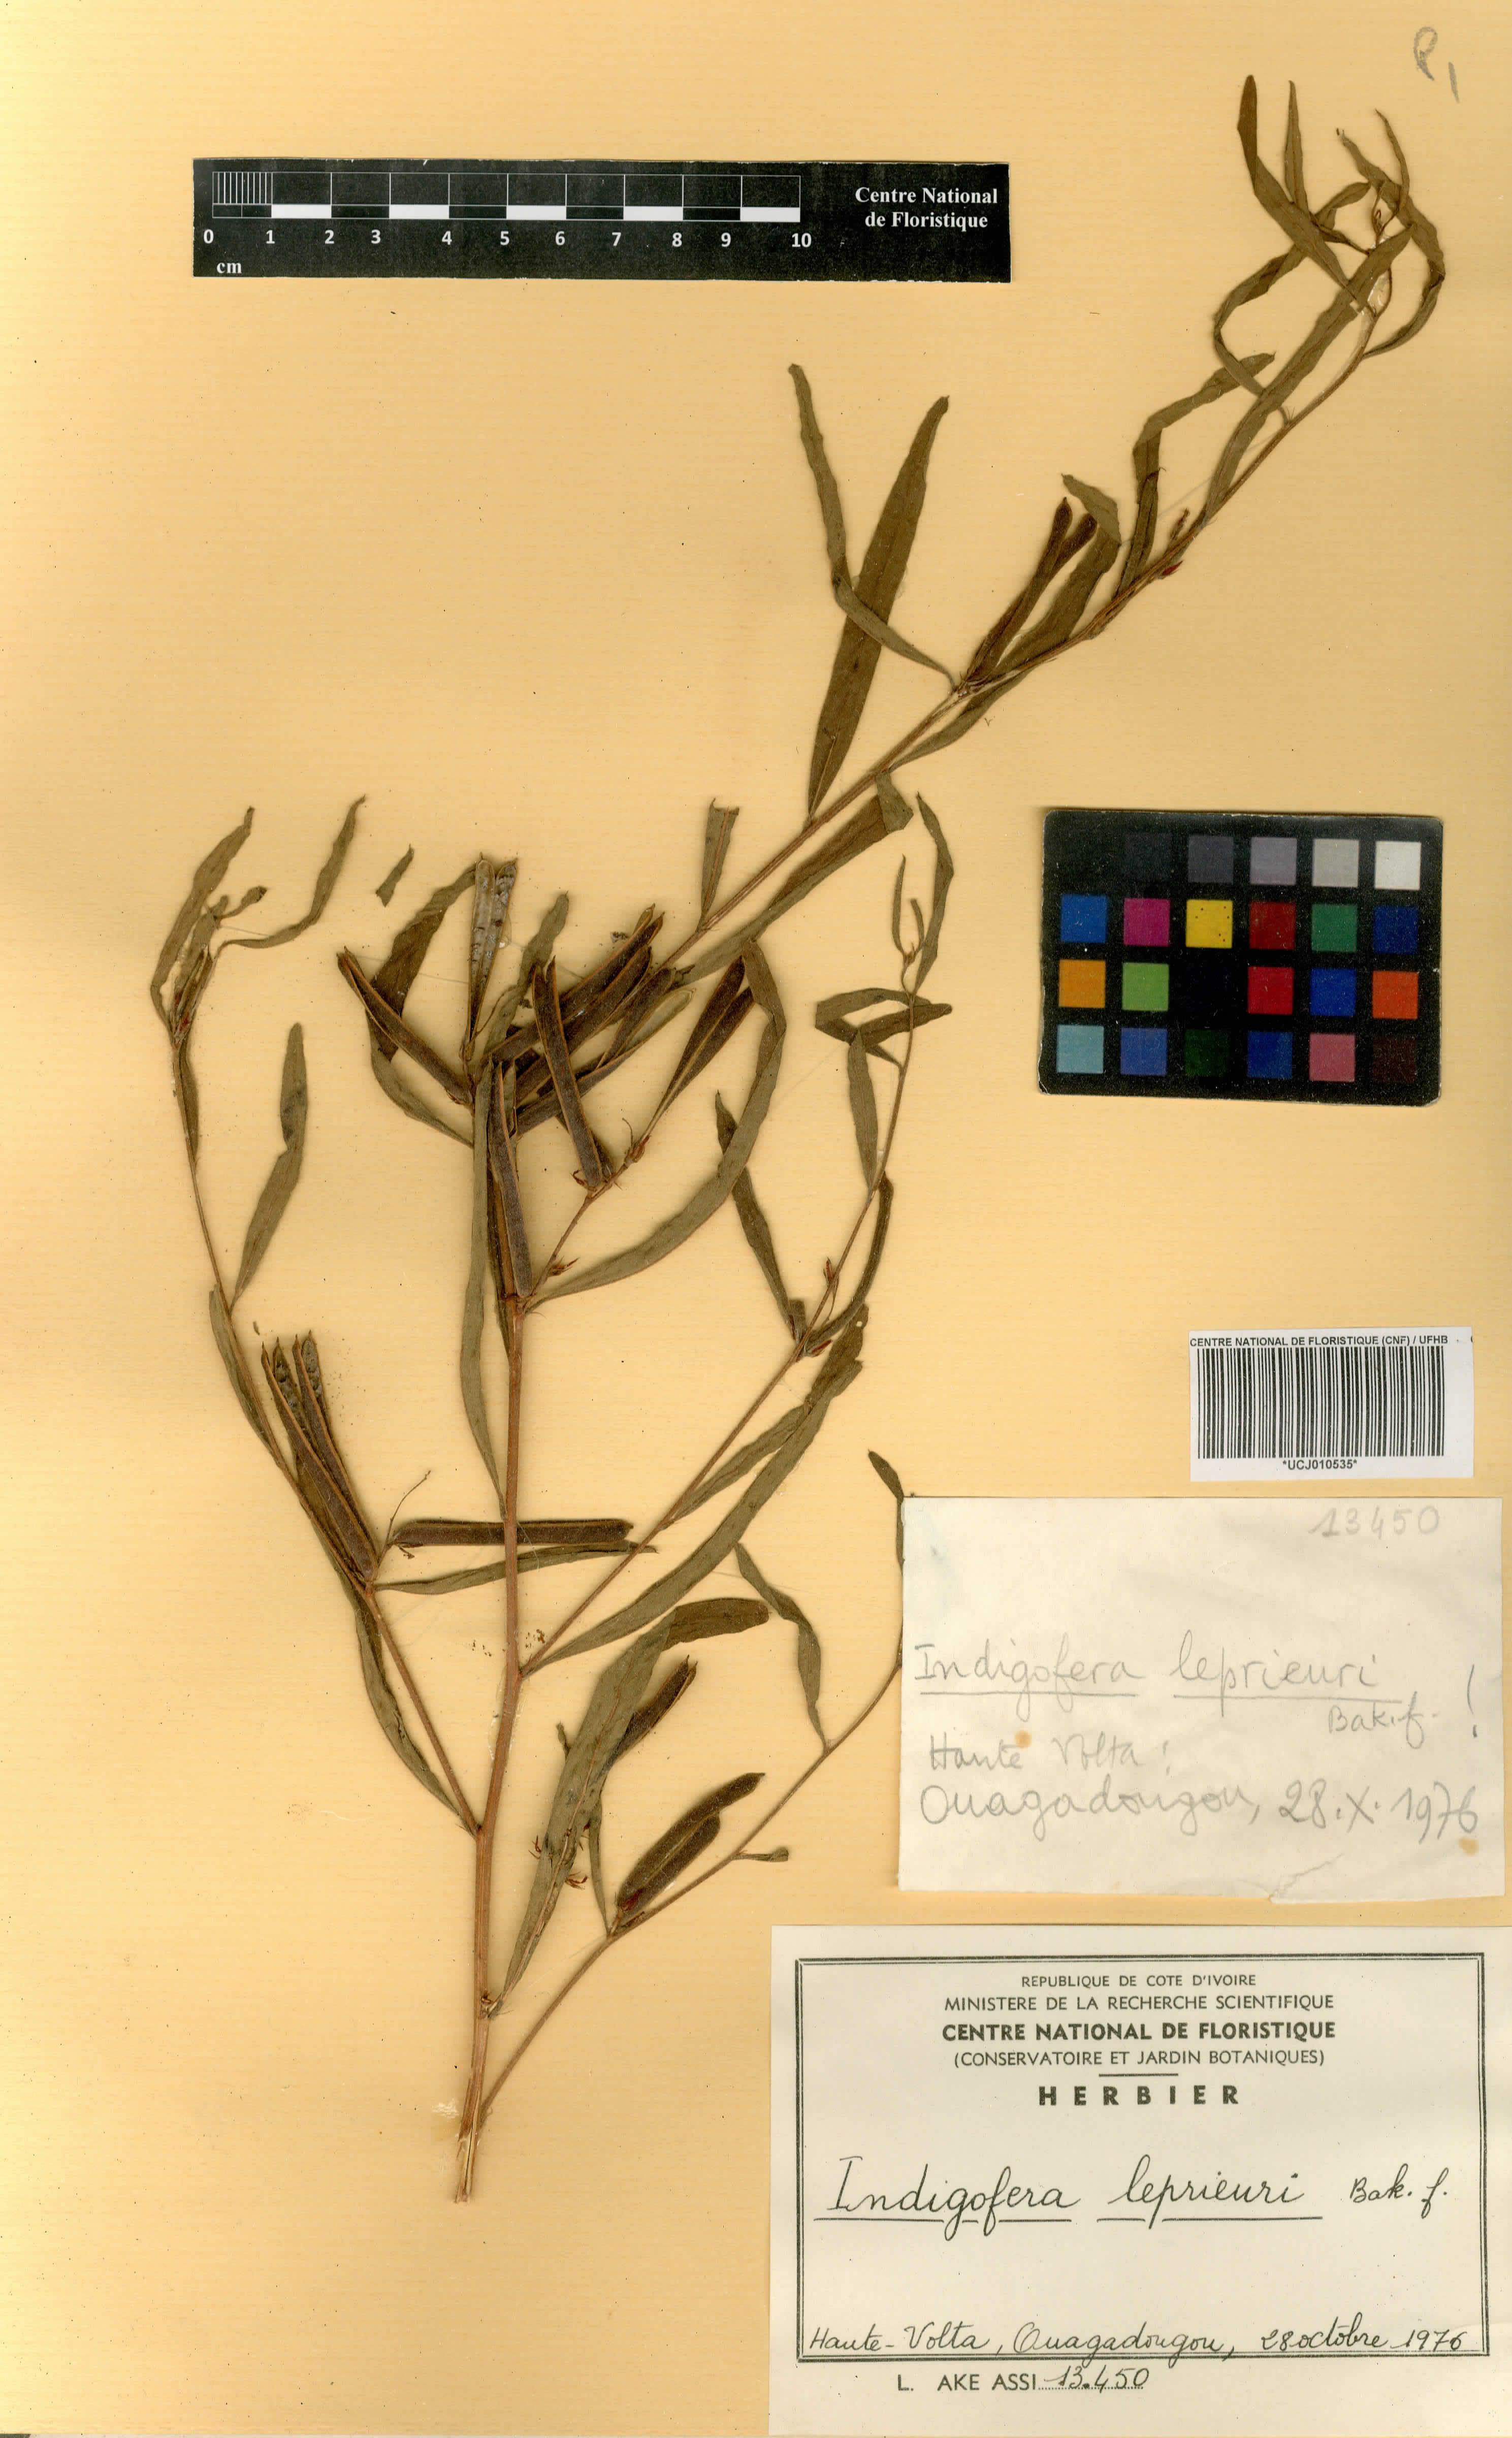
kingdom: Plantae
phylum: Tracheophyta
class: Magnoliopsida
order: Fabales
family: Fabaceae
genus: Indigofera
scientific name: Indigofera leprieurii
